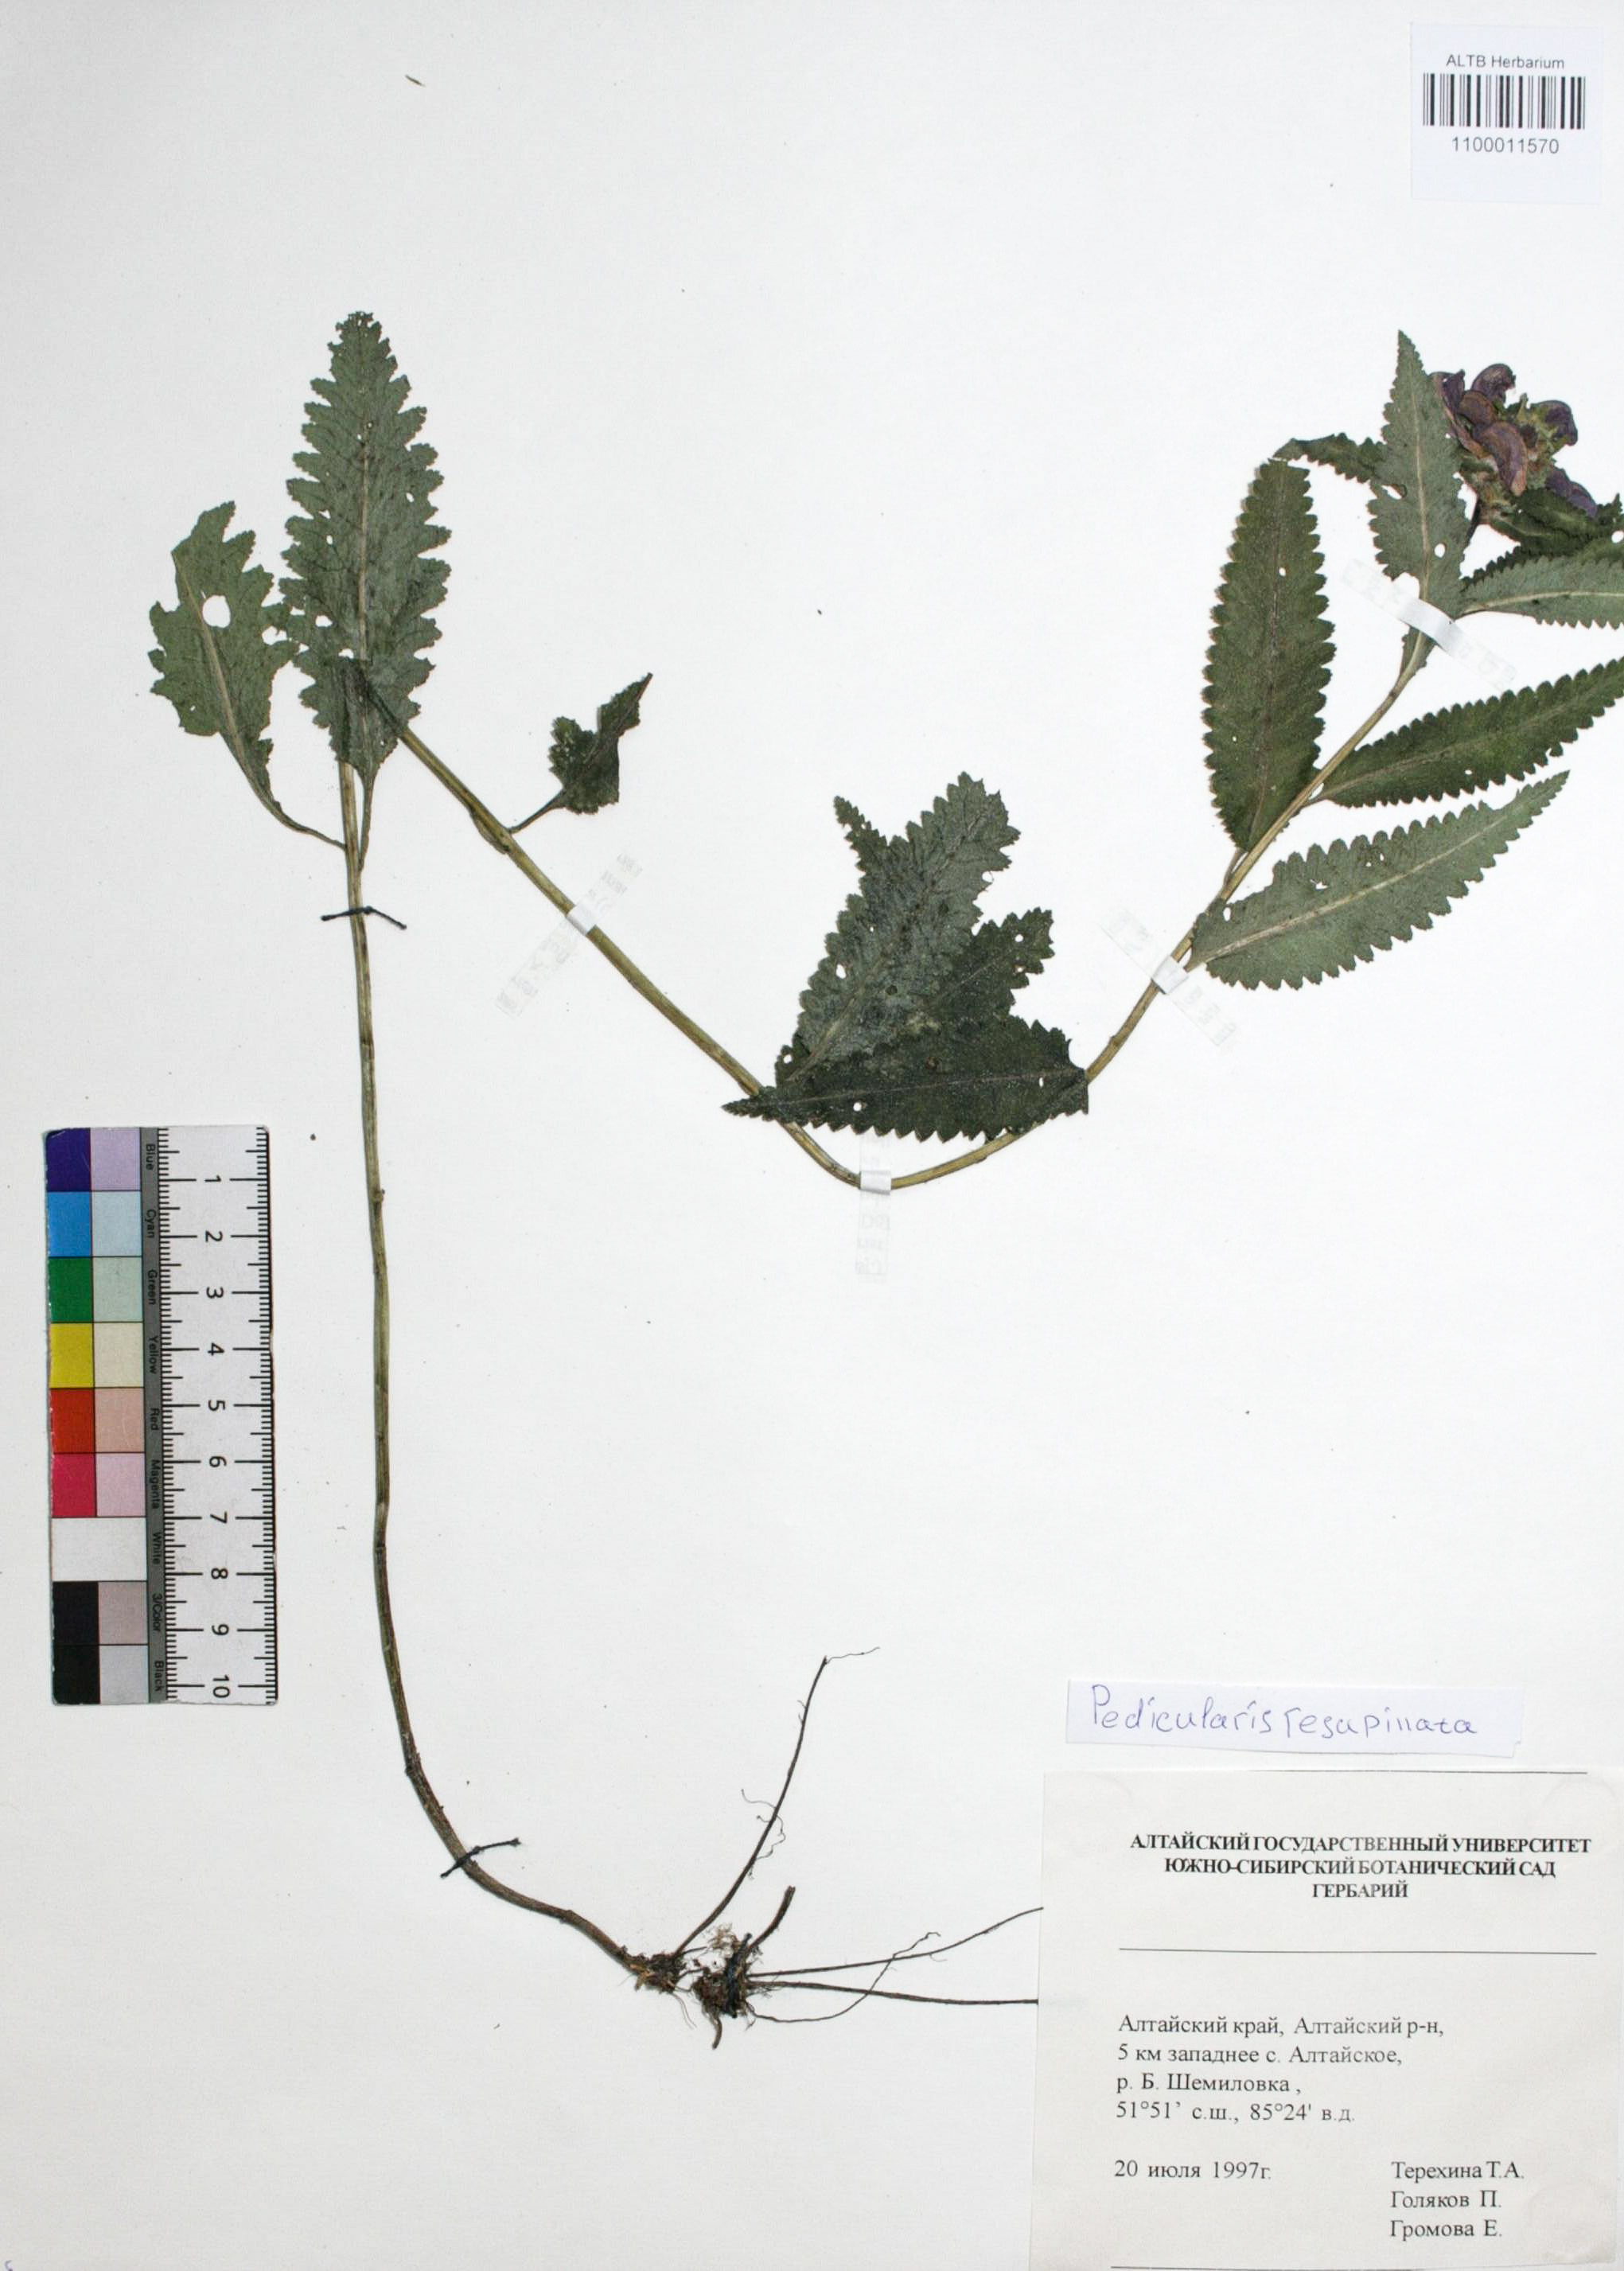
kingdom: Plantae
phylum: Tracheophyta
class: Magnoliopsida
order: Lamiales
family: Orobanchaceae
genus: Pedicularis
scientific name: Pedicularis resupinata
